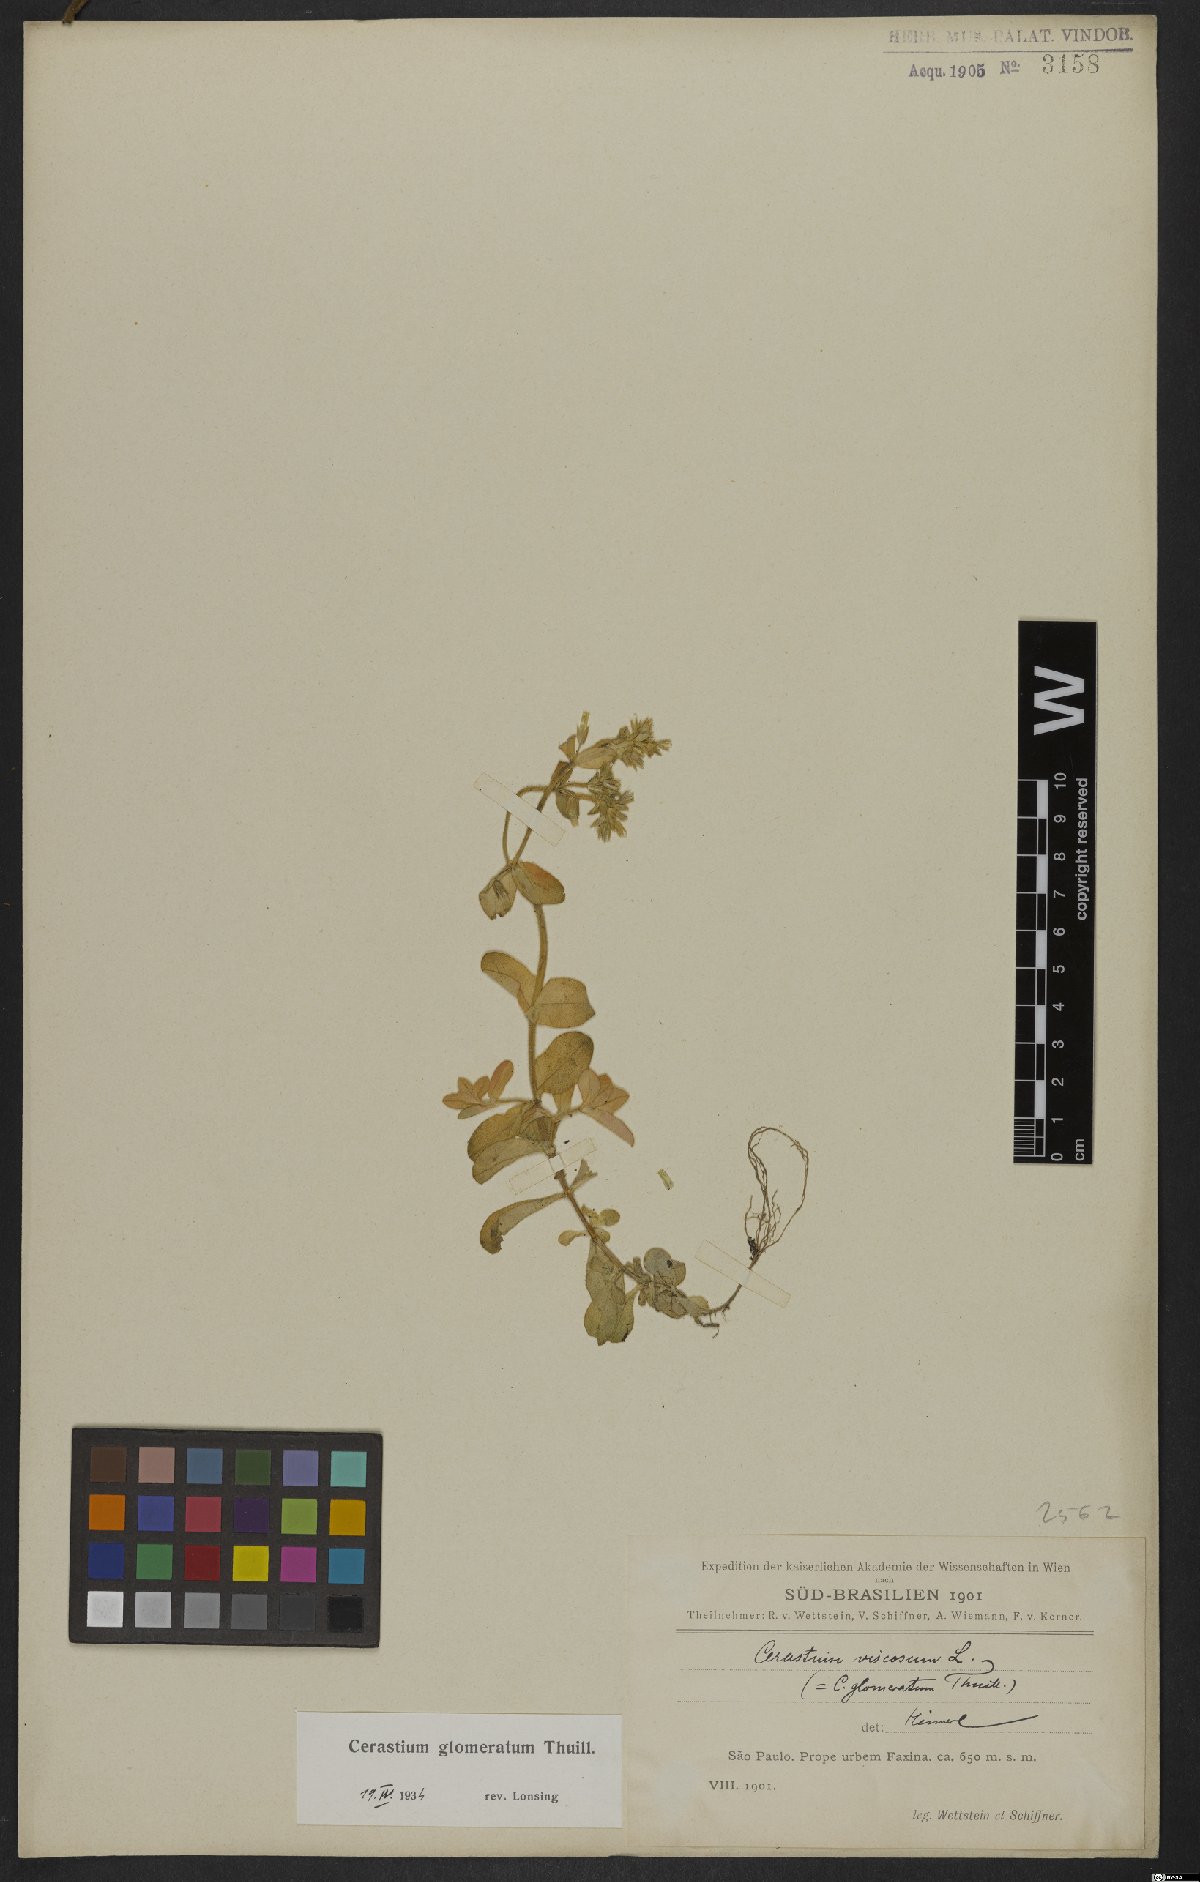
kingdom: Plantae
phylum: Tracheophyta
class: Magnoliopsida
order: Caryophyllales
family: Caryophyllaceae
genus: Cerastium
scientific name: Cerastium glomeratum
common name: Sticky chickweed
